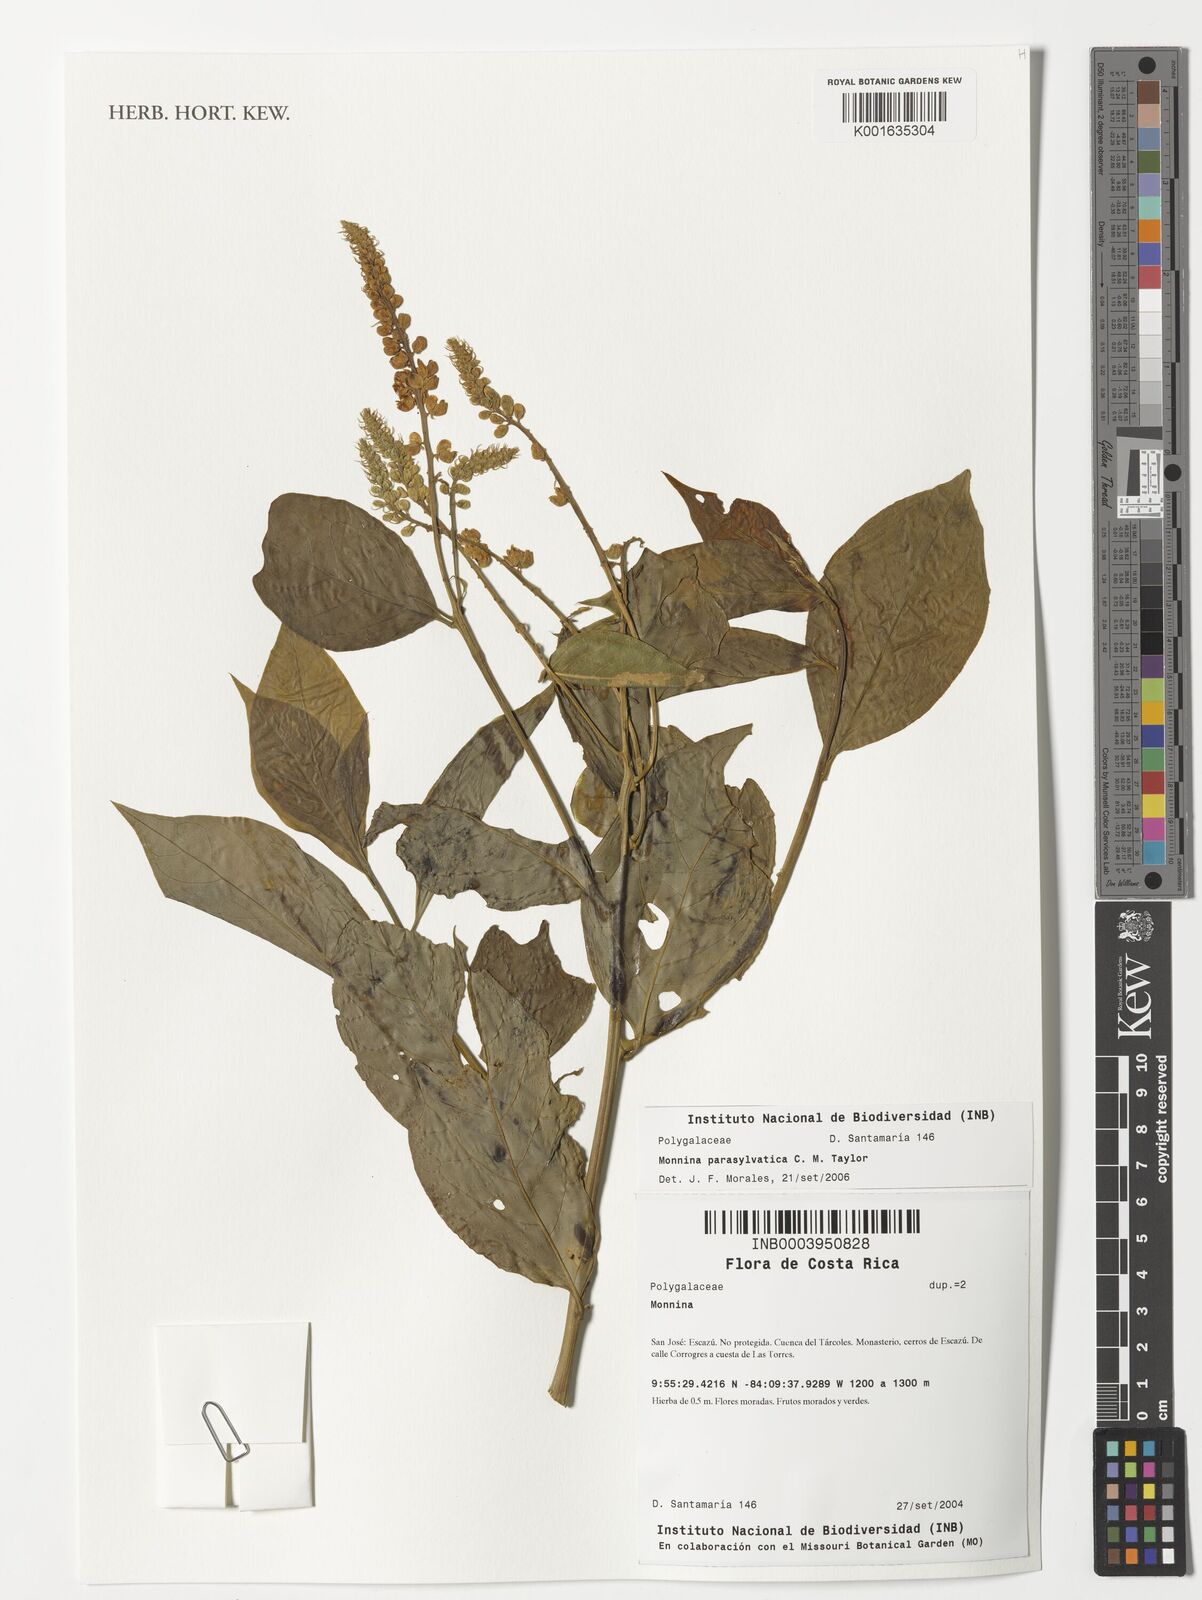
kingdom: Plantae
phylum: Tracheophyta
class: Magnoliopsida
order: Fabales
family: Polygalaceae
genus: Monnina
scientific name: Monnina parasylvatica
